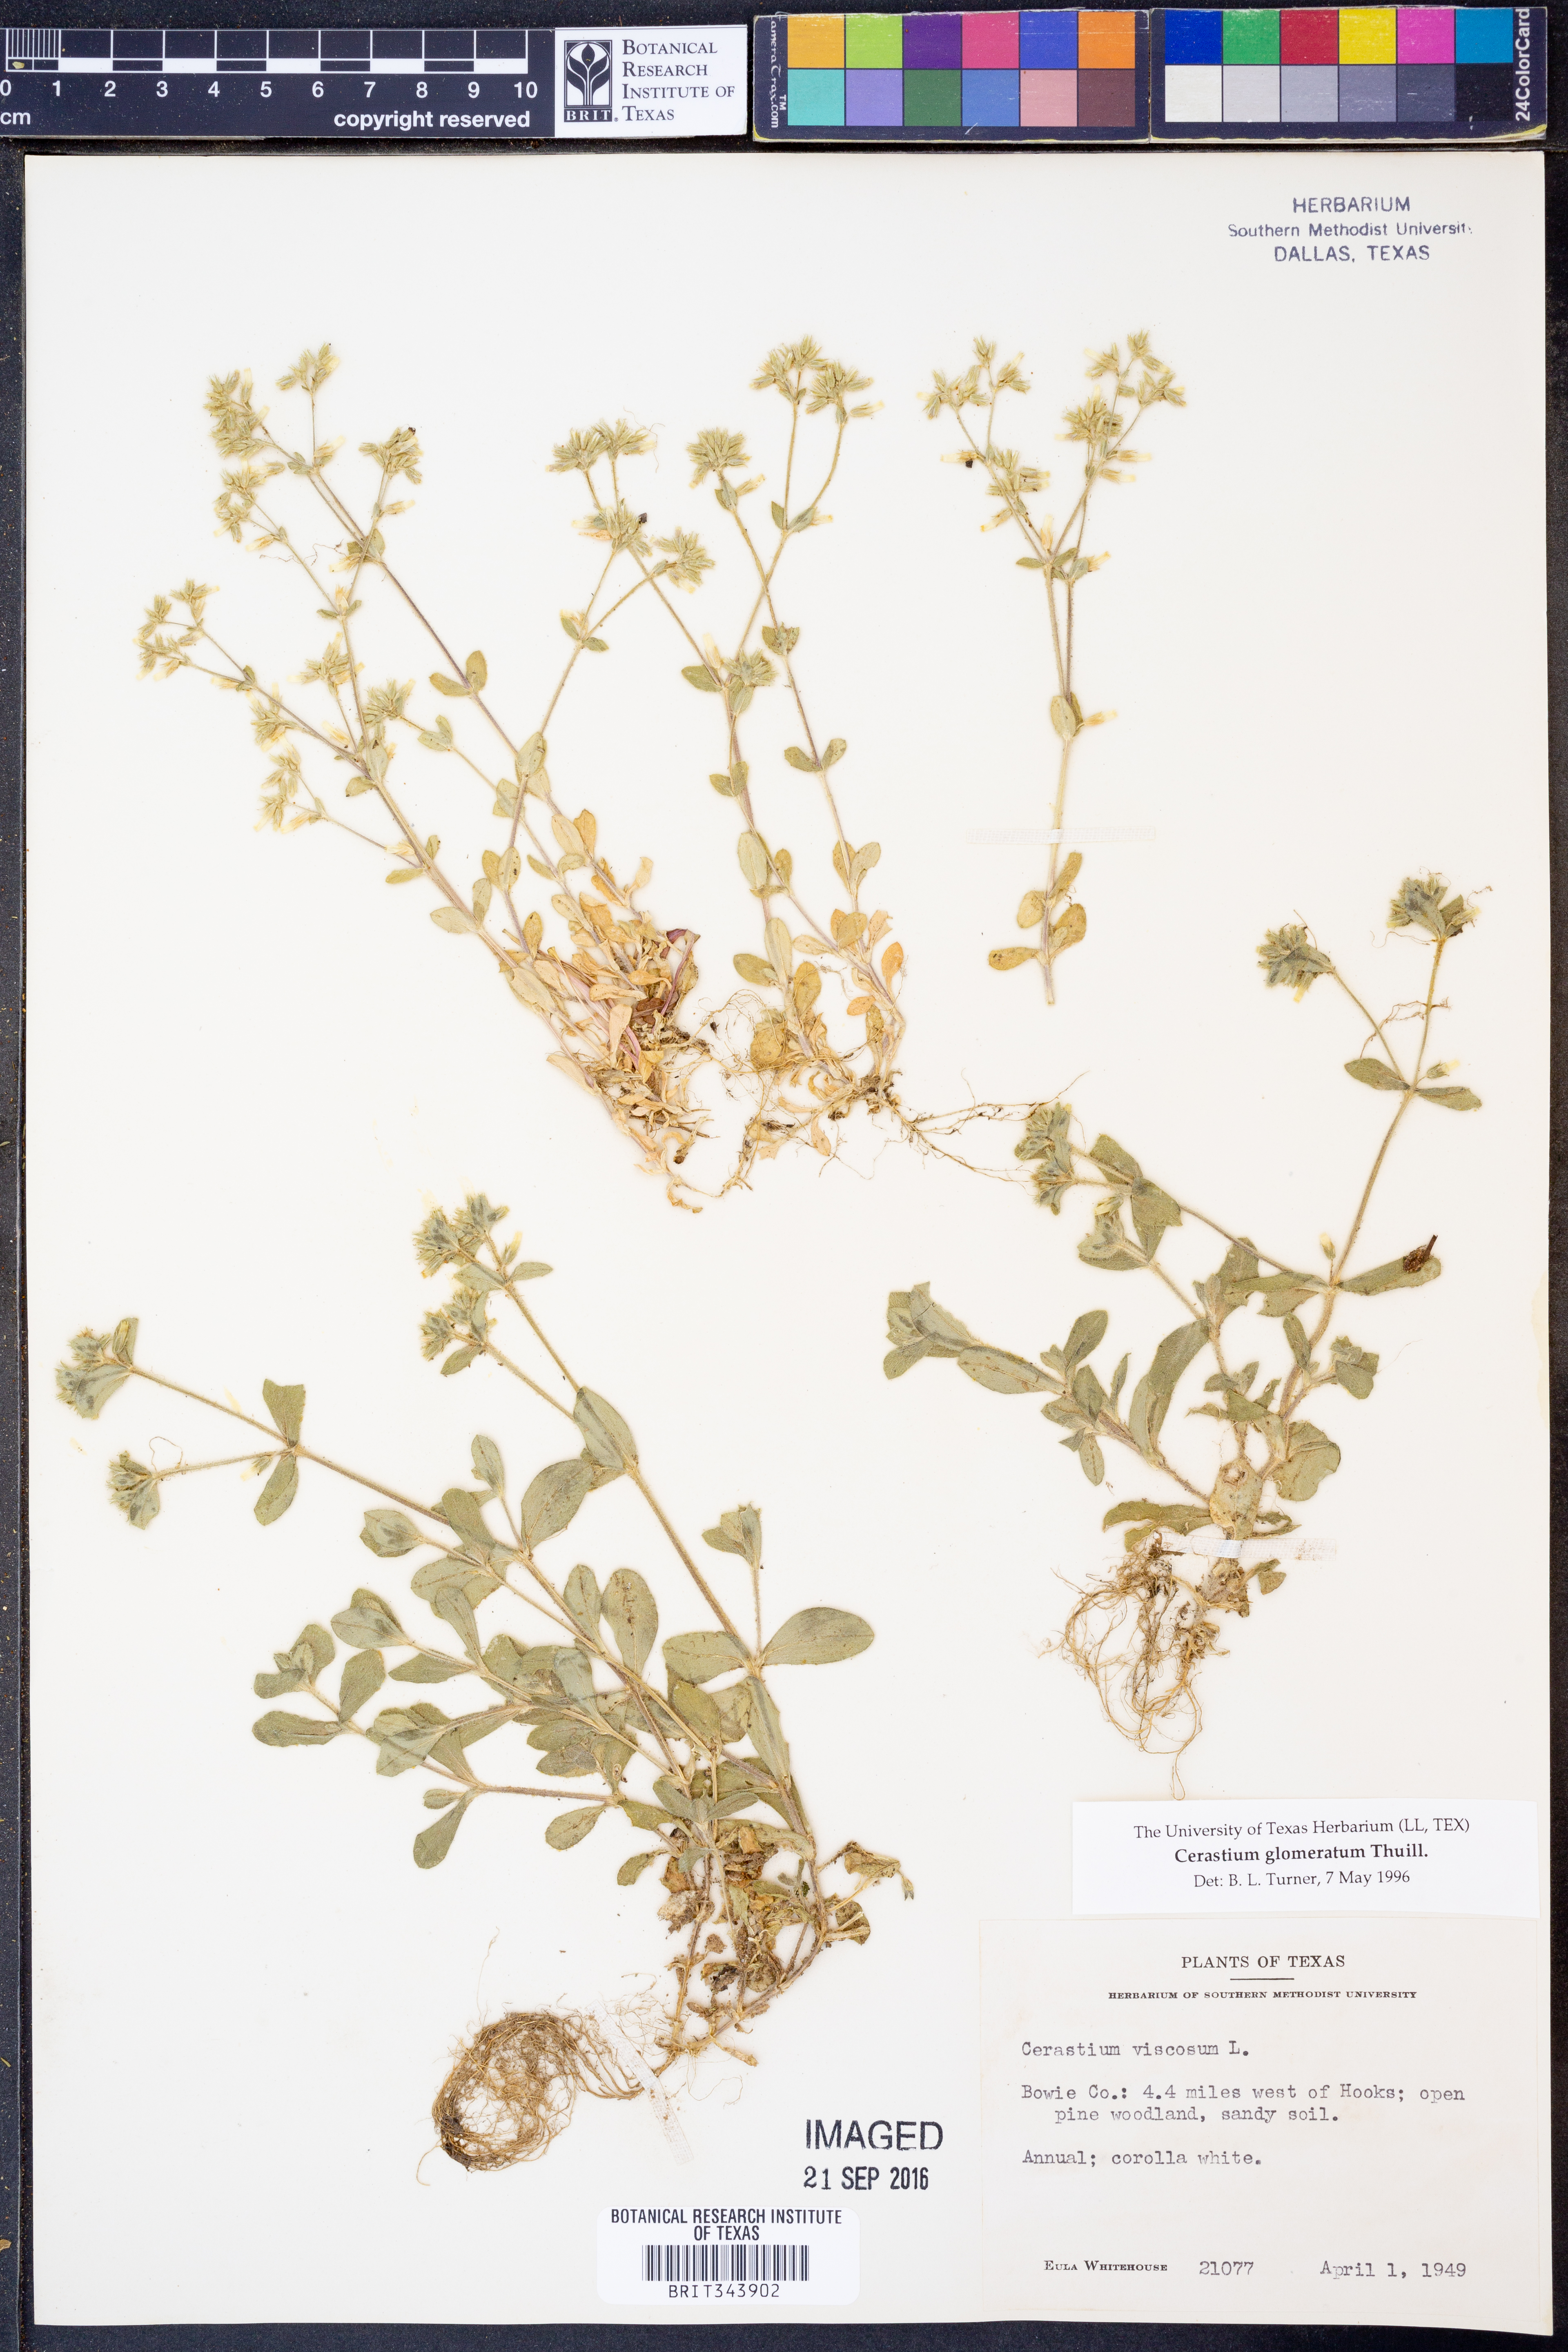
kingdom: Plantae
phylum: Tracheophyta
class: Magnoliopsida
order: Caryophyllales
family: Caryophyllaceae
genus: Cerastium
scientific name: Cerastium glomeratum
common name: Sticky chickweed
